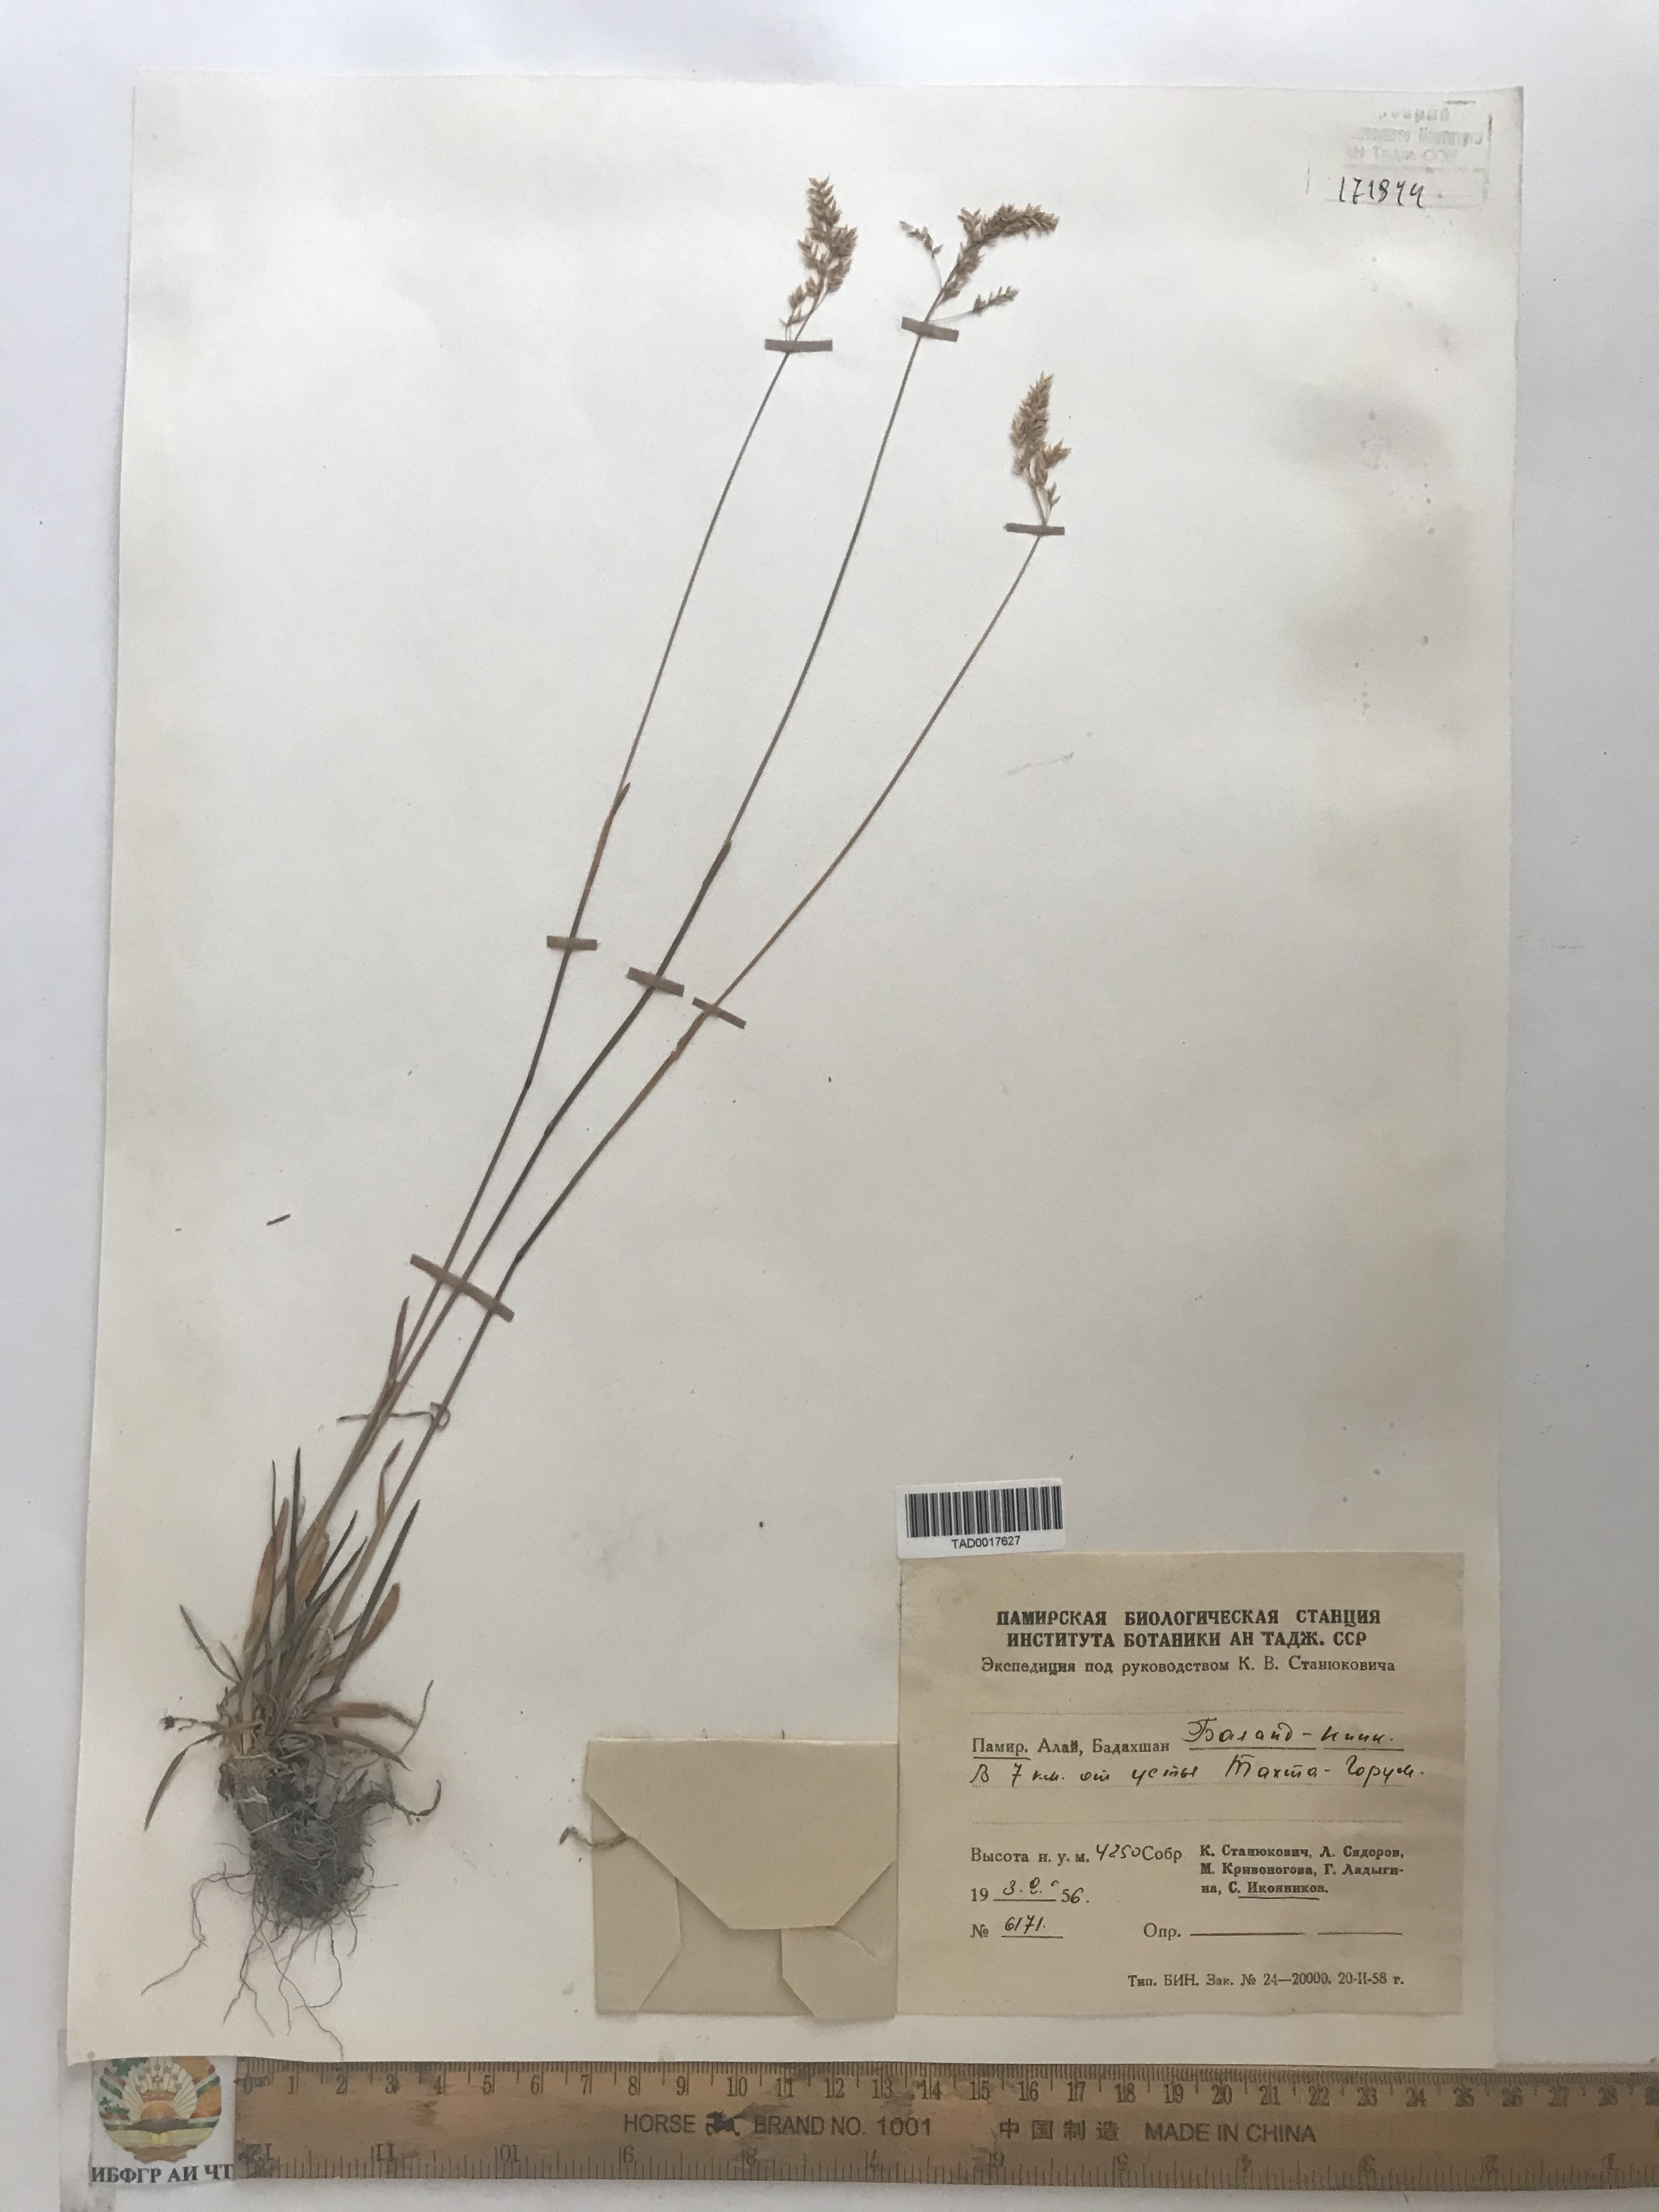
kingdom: Plantae
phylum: Tracheophyta
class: Liliopsida
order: Poales
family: Poaceae
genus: Poa
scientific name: Poa tianschanica
